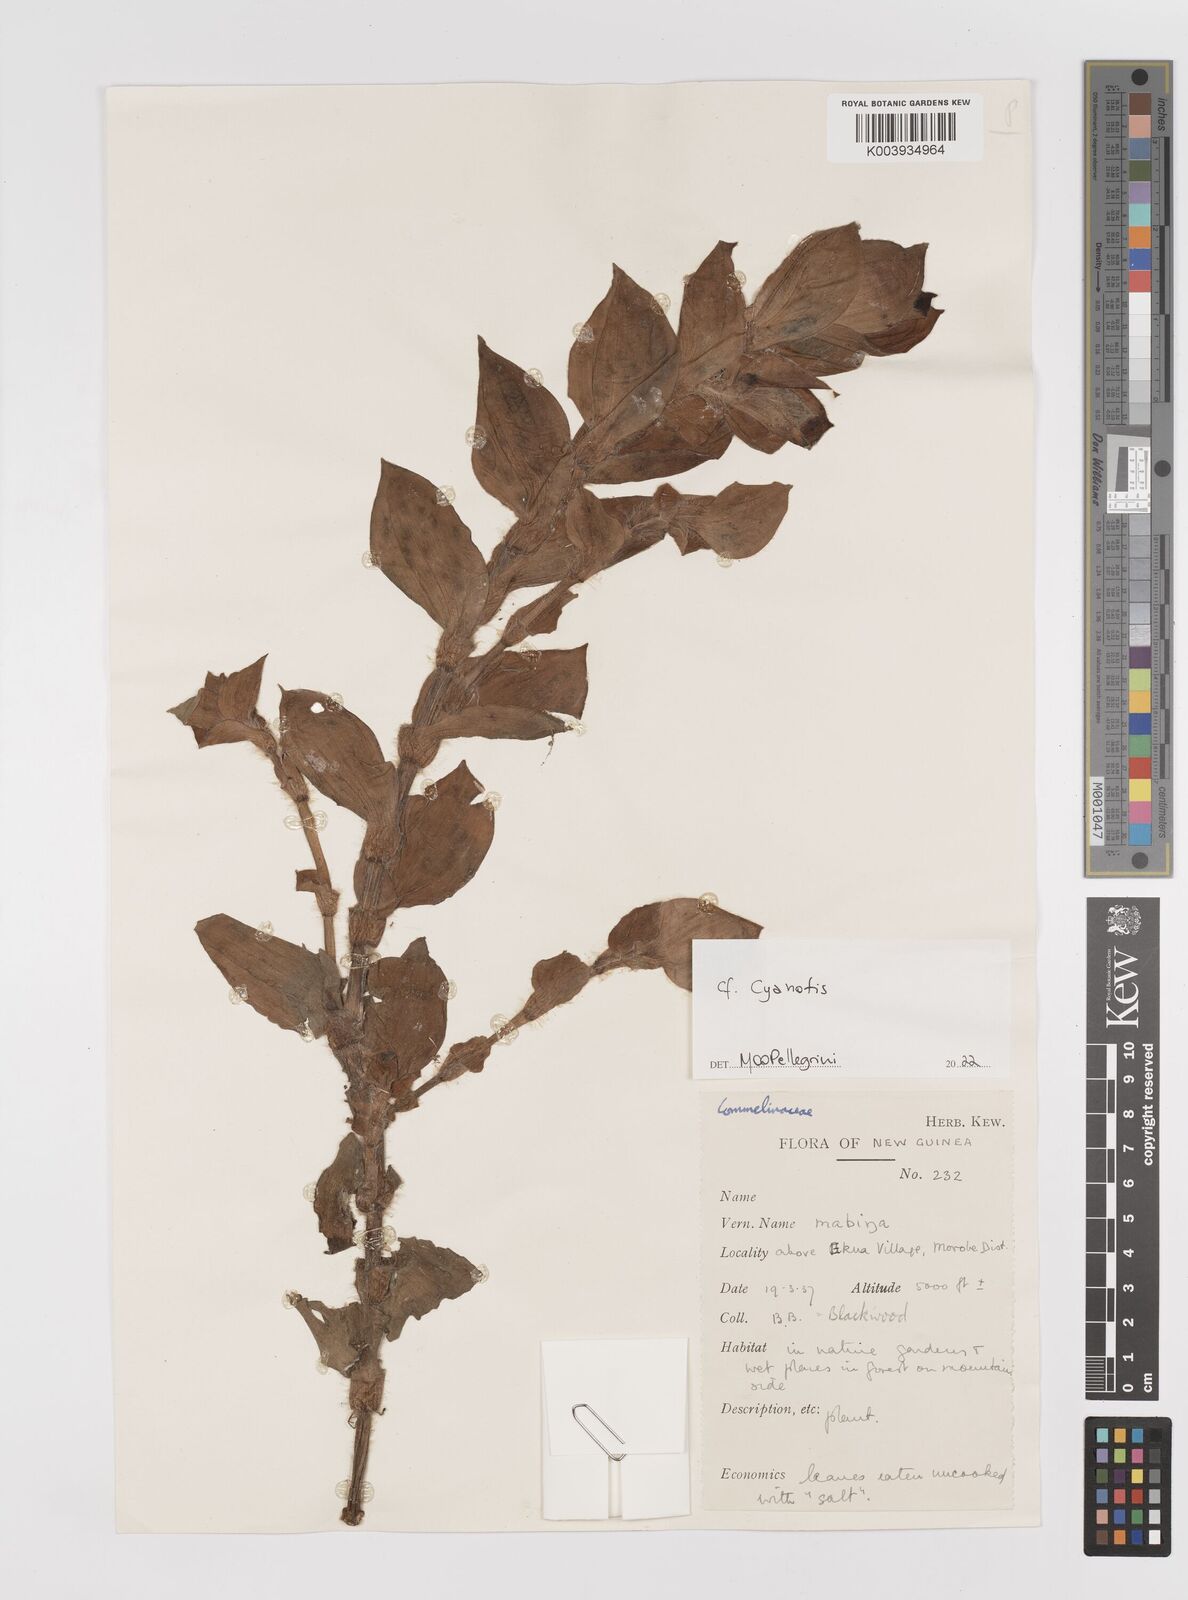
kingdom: Plantae
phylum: Tracheophyta
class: Liliopsida
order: Commelinales
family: Commelinaceae
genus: Cyanotis
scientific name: Cyanotis
